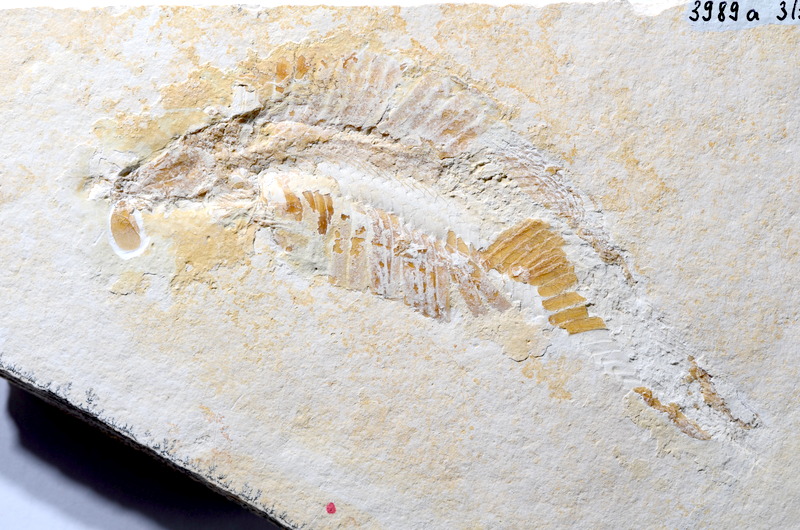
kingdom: Animalia
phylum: Chordata
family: Pleuropholidae
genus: Pleuropholis
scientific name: Pleuropholis
